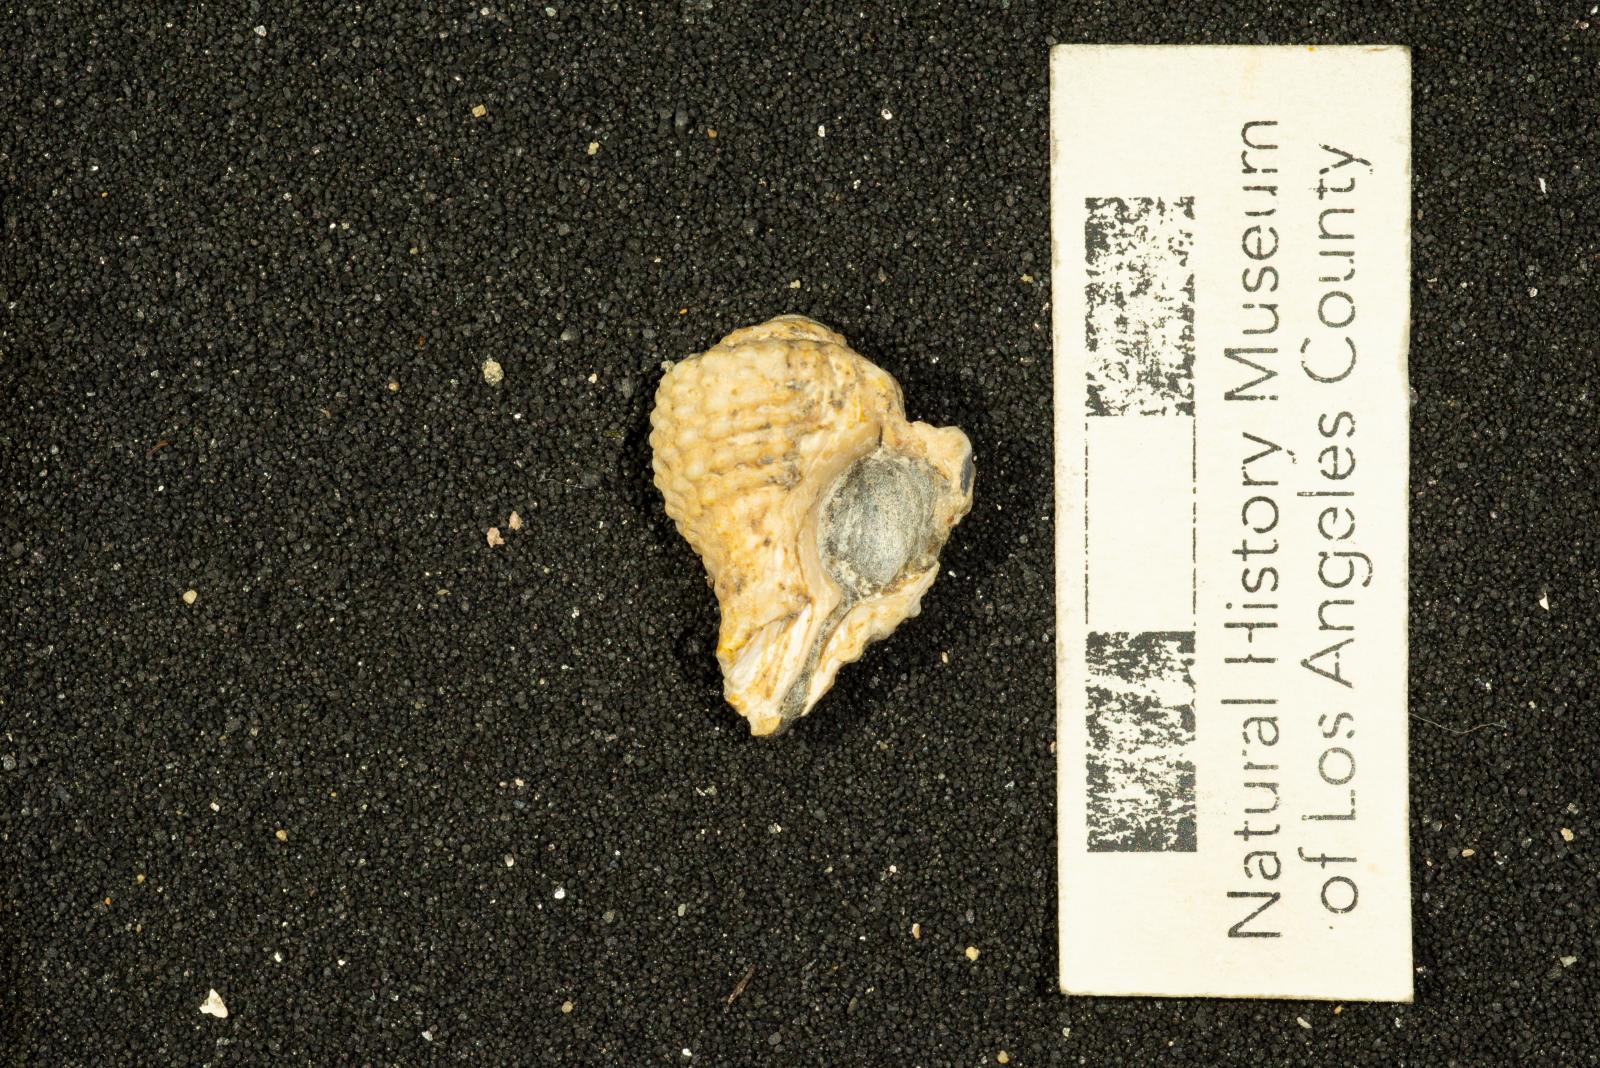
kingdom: Animalia
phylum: Mollusca
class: Gastropoda
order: Neogastropoda
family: Volutidae
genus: Carota
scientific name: Carota Scobinella dilleri
